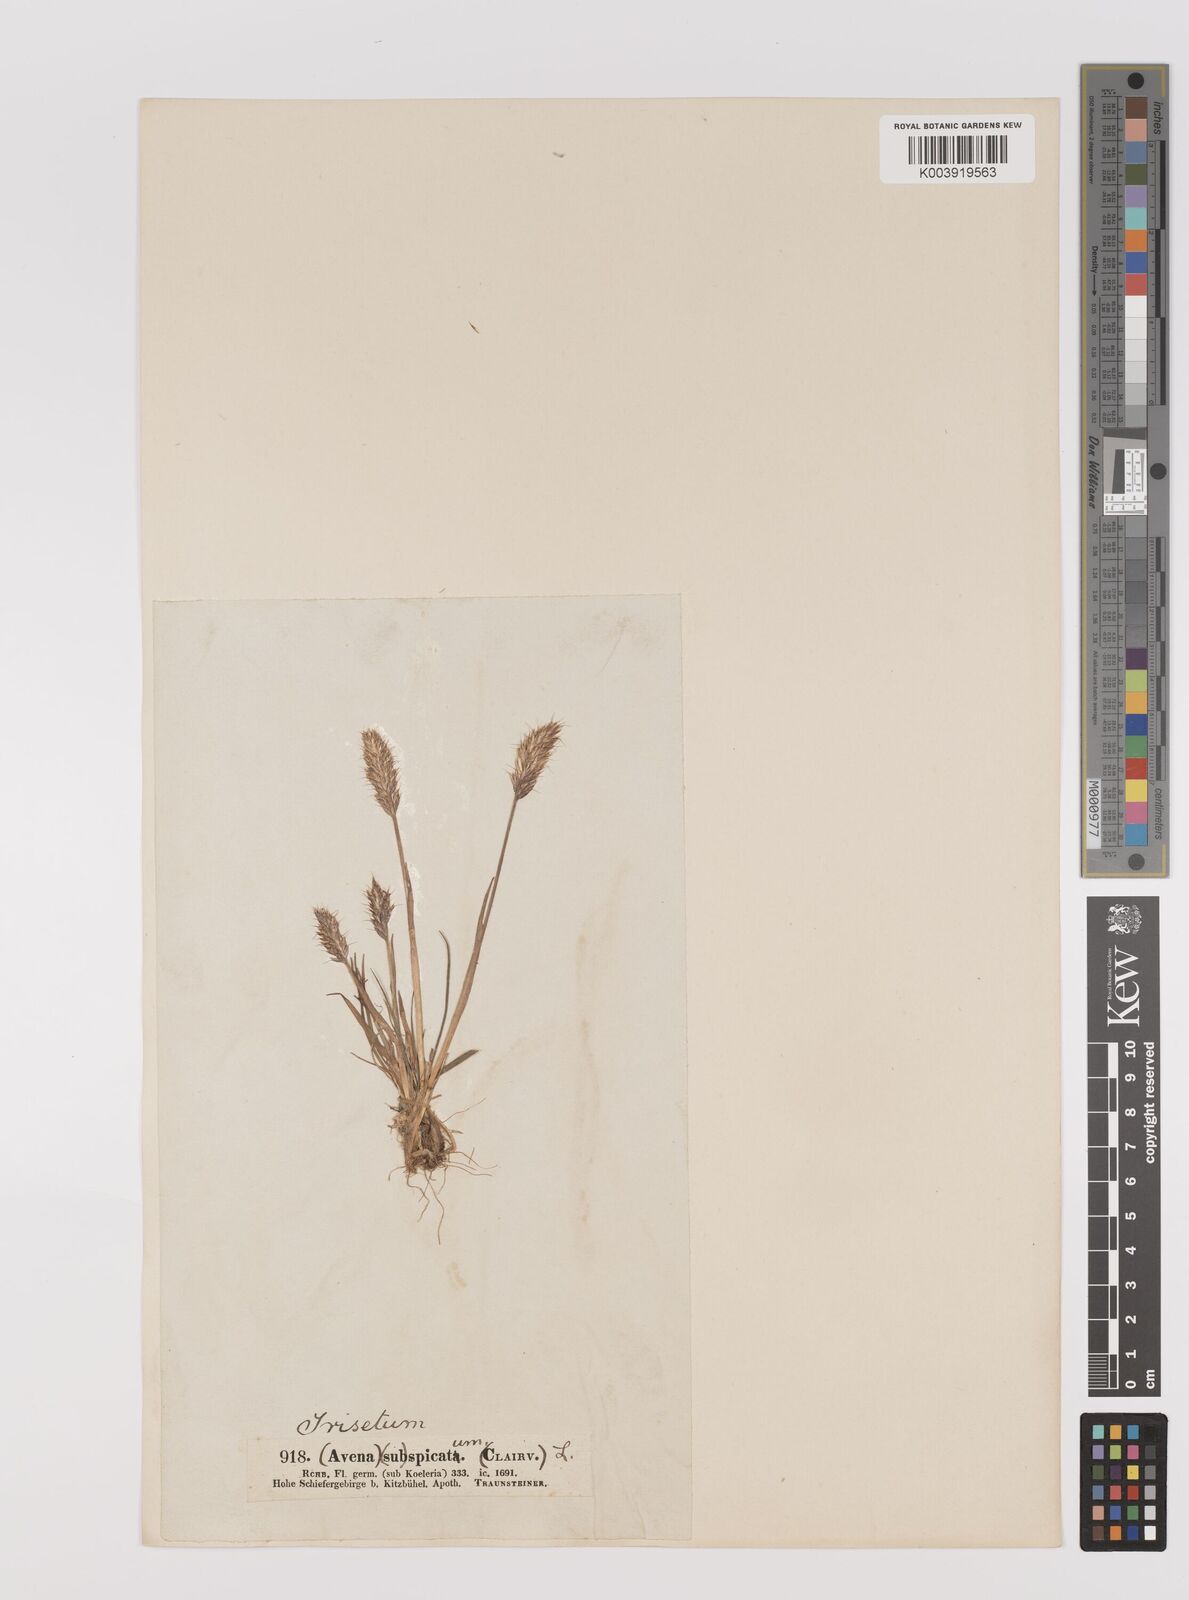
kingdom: Plantae
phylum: Tracheophyta
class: Liliopsida
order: Poales
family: Poaceae
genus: Koeleria
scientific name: Koeleria spicata
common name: Mountain trisetum
